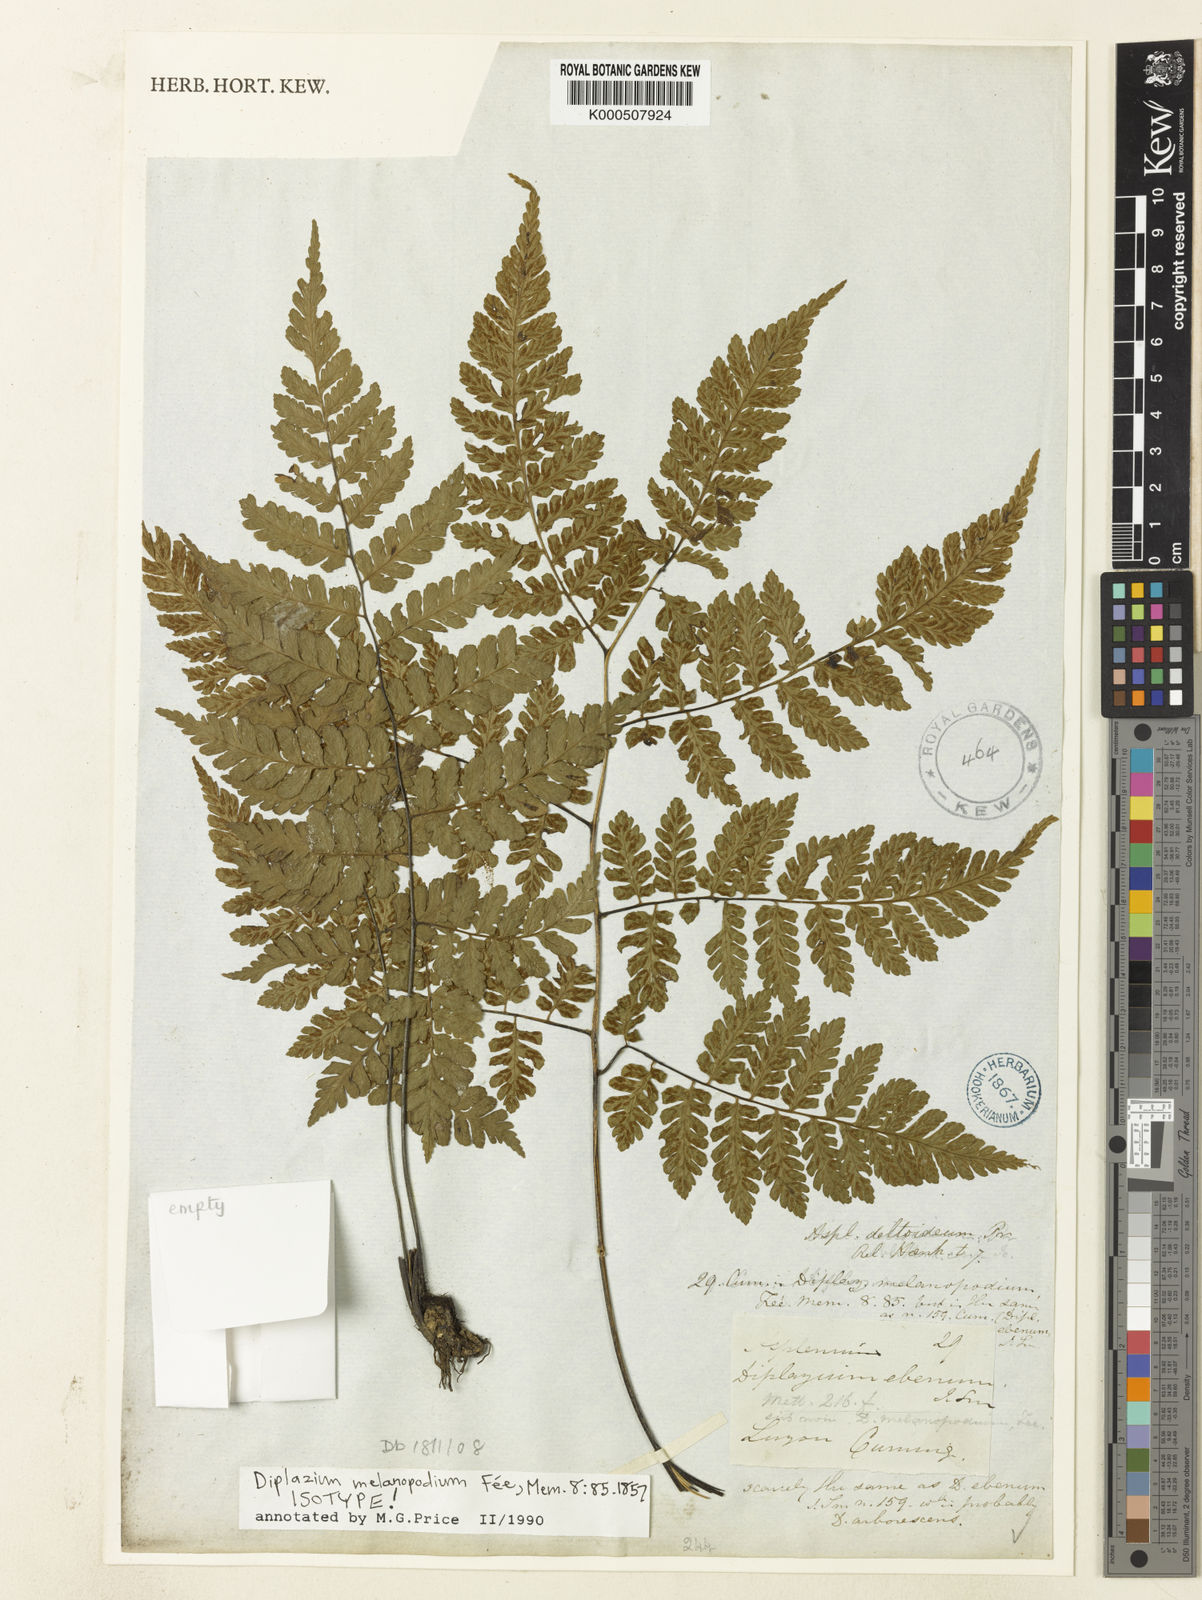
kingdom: Plantae
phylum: Tracheophyta
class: Polypodiopsida
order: Polypodiales
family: Athyriaceae
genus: Diplazium
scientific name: Diplazium
